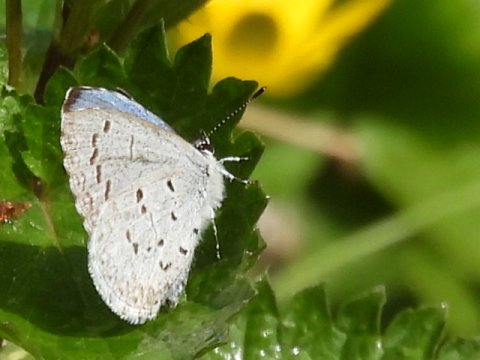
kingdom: Animalia
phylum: Arthropoda
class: Insecta
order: Lepidoptera
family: Lycaenidae
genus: Celastrina
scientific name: Celastrina ladon
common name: Spring Azure
